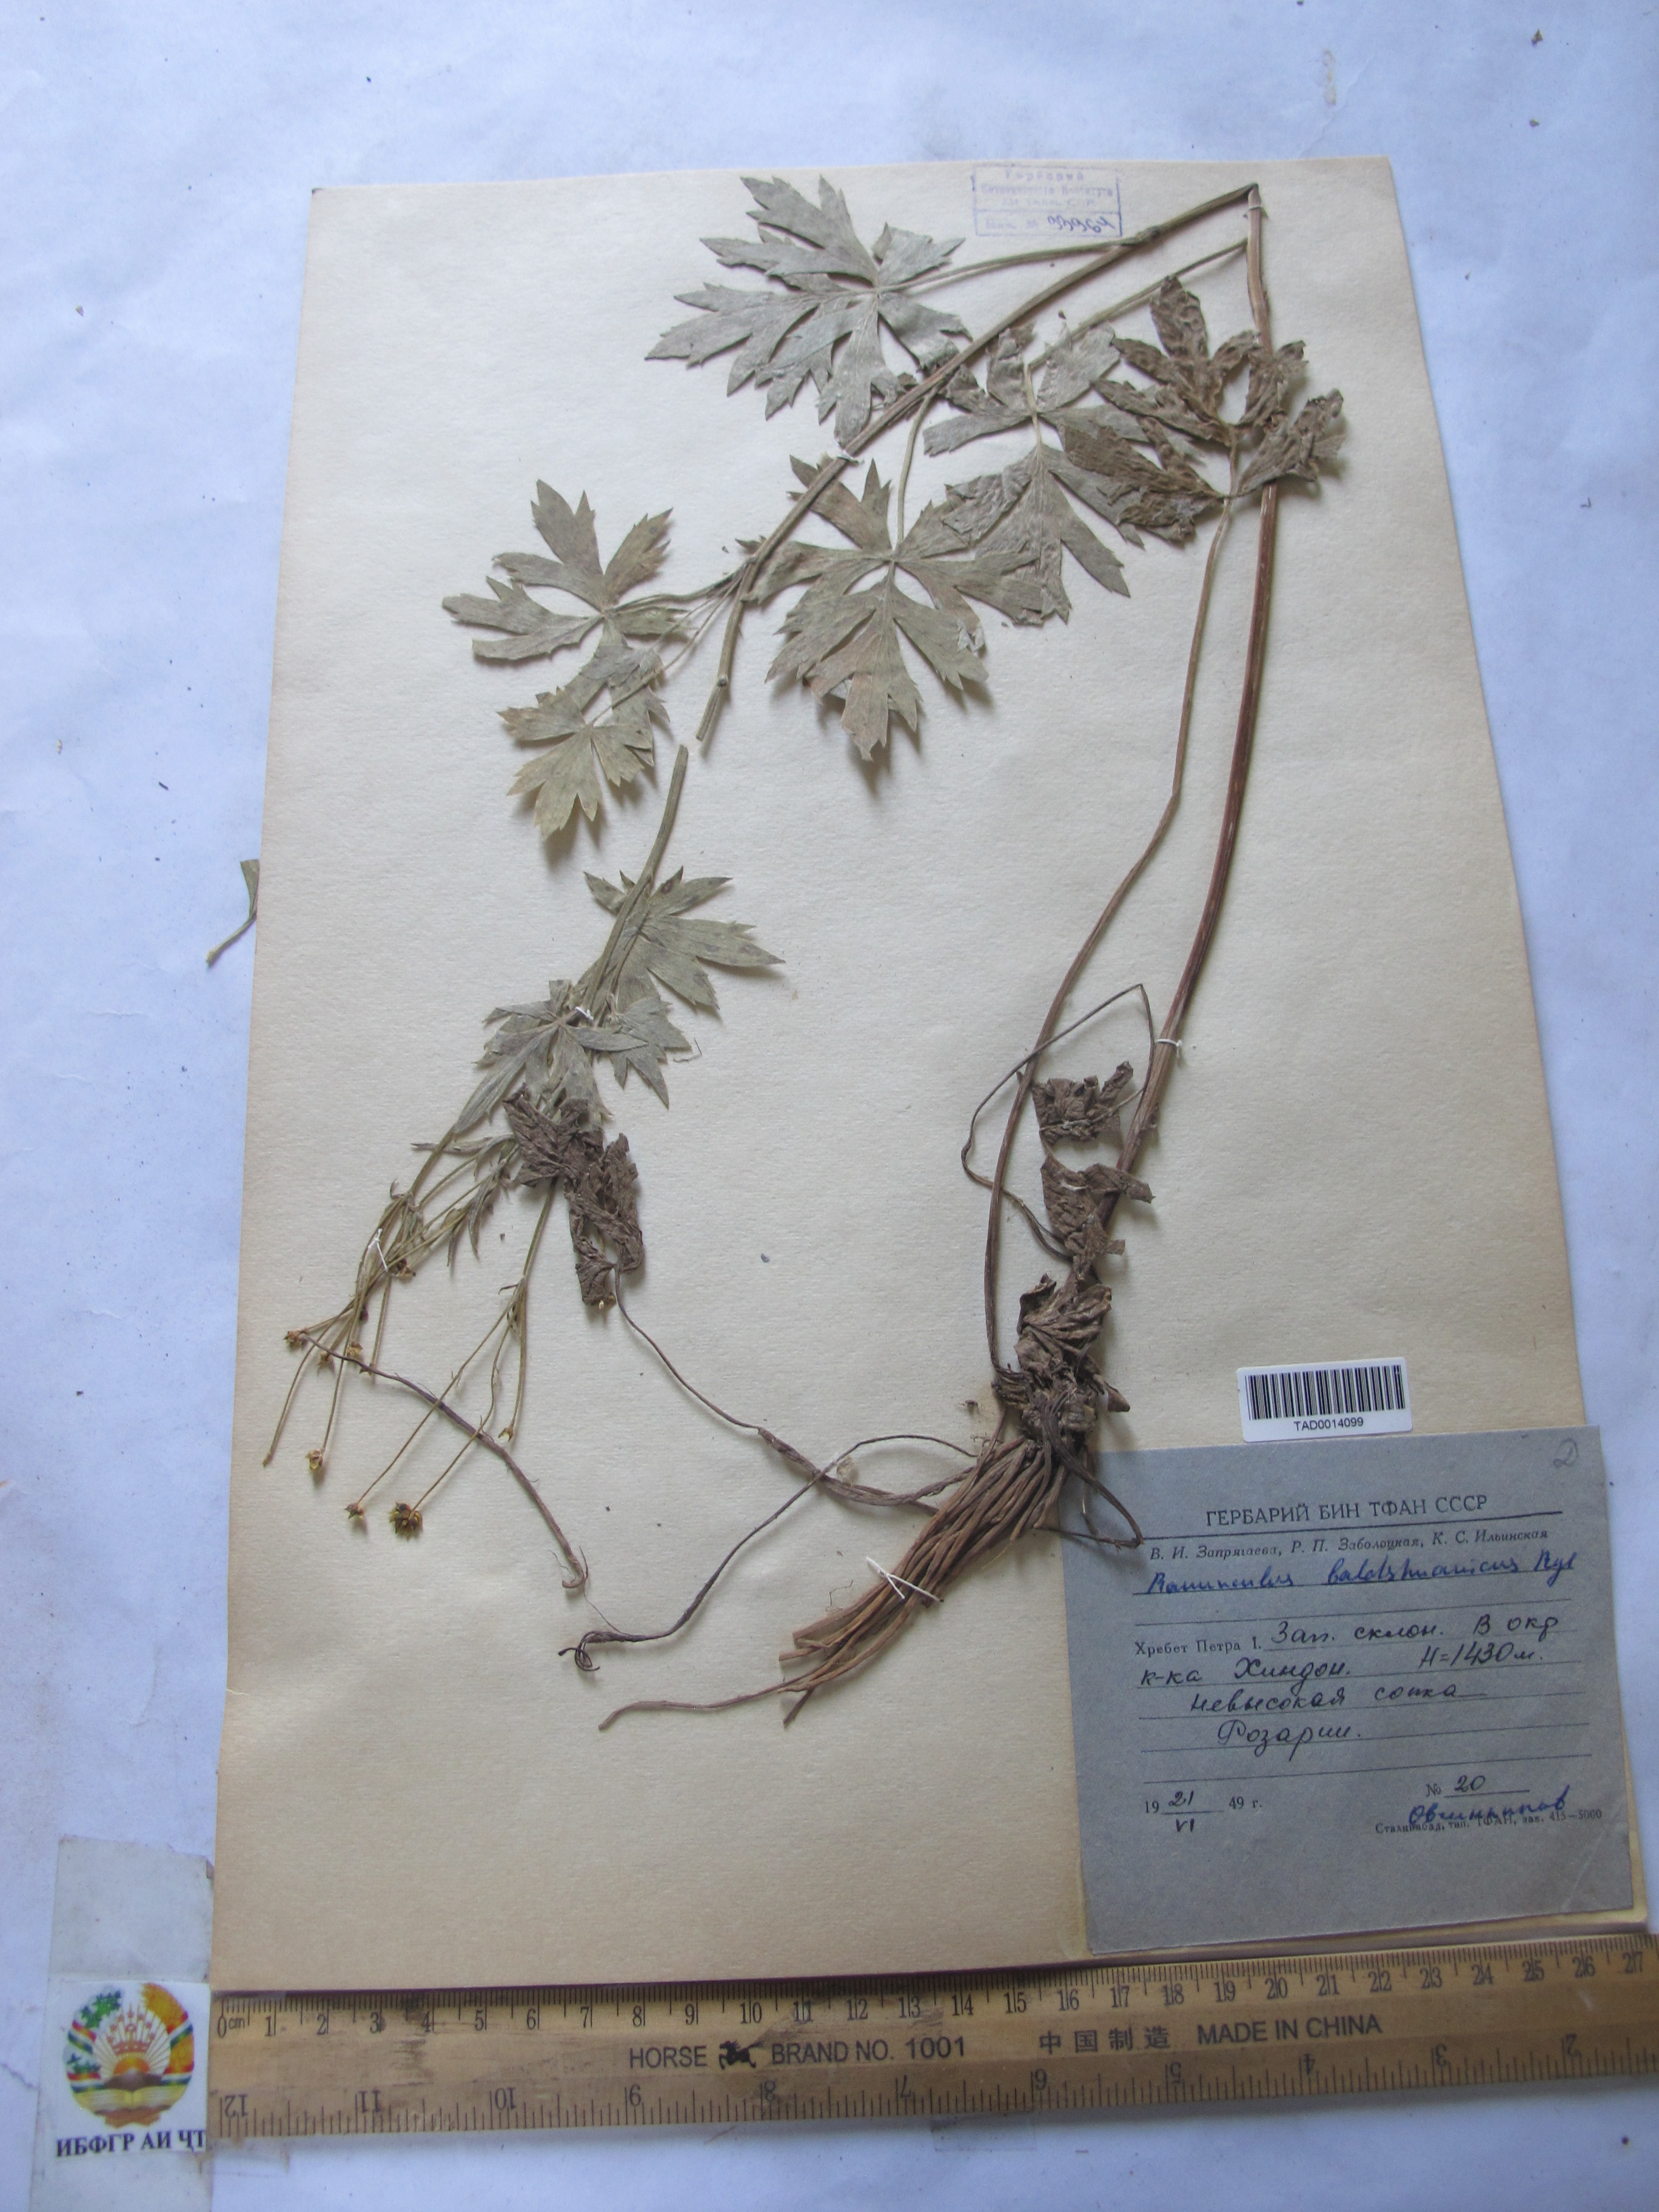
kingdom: Plantae
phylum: Tracheophyta
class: Magnoliopsida
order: Ranunculales
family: Ranunculaceae
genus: Ranunculus
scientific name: Ranunculus baldshuanicus
